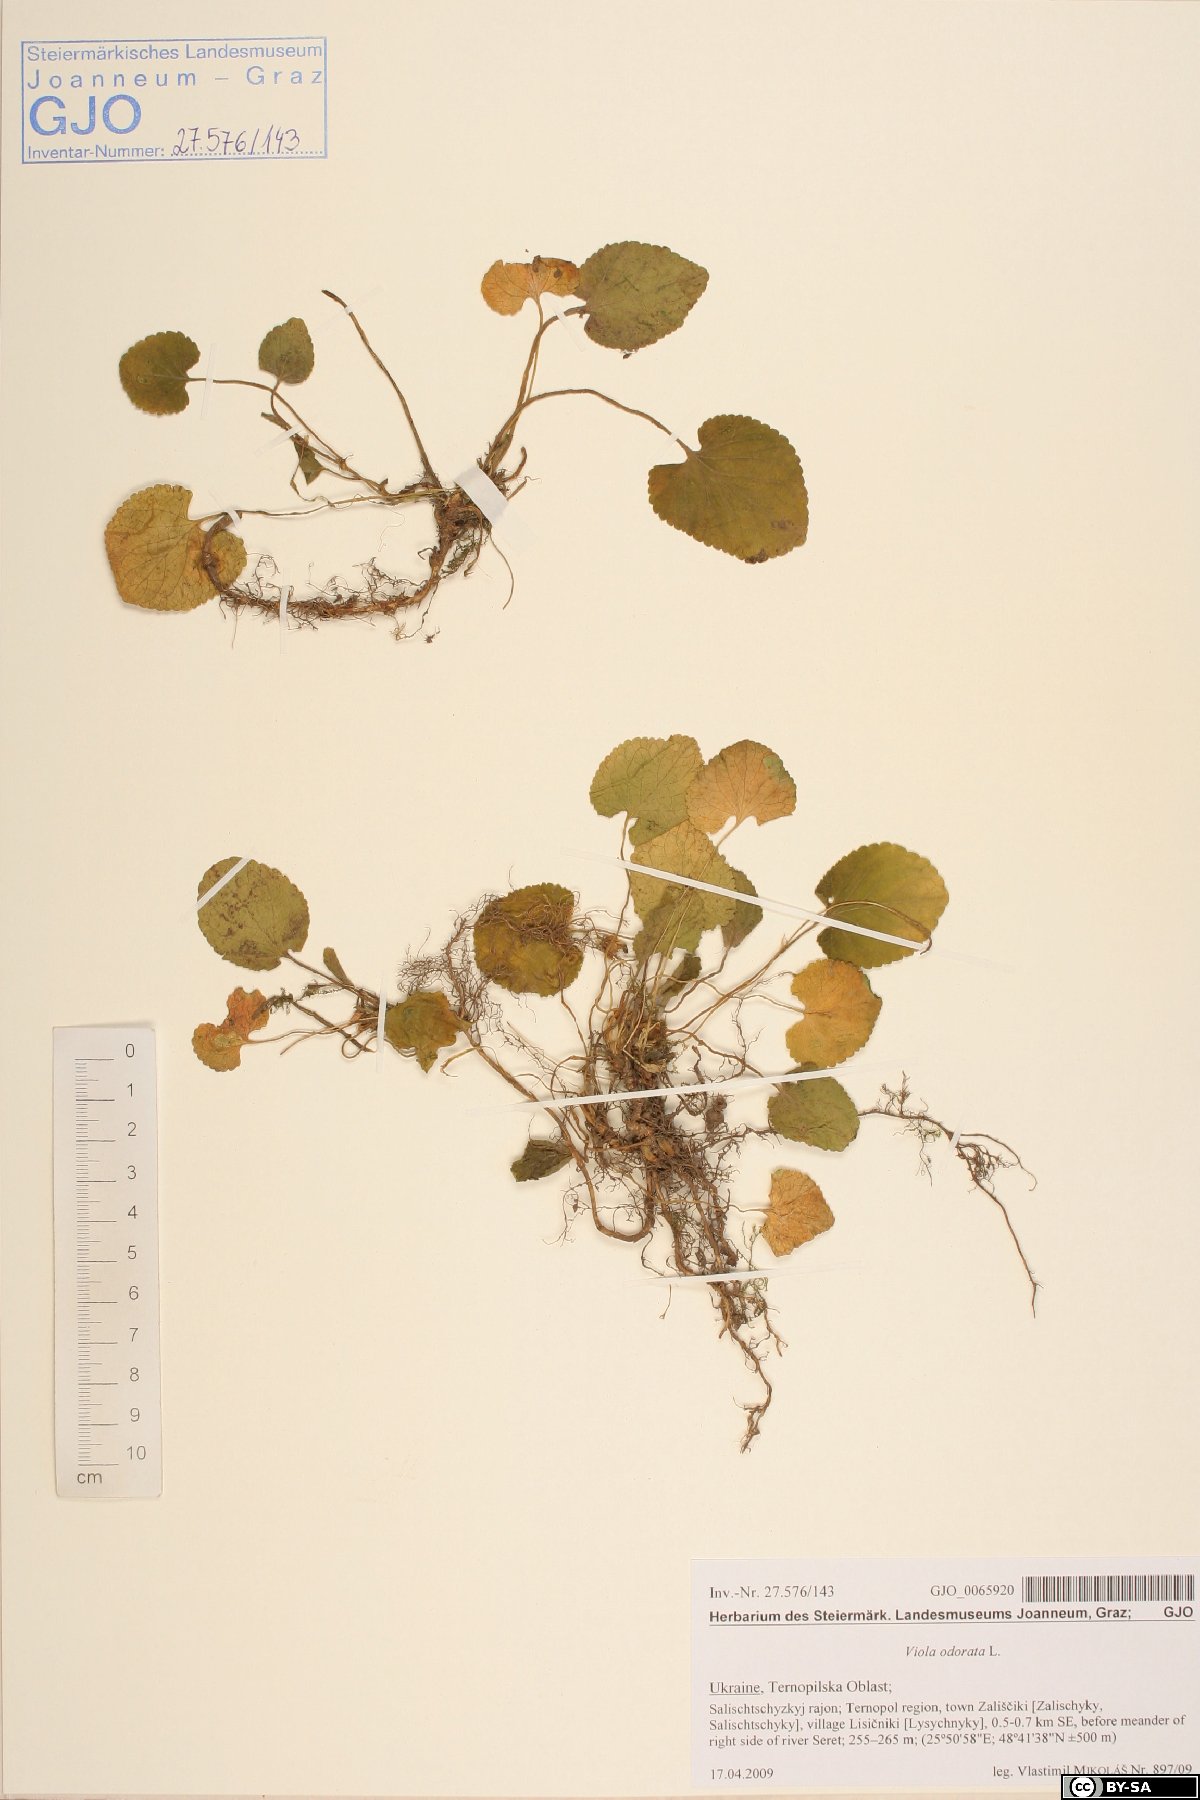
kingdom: Plantae
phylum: Tracheophyta
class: Magnoliopsida
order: Malpighiales
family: Violaceae
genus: Viola
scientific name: Viola odorata
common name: Sweet violet
